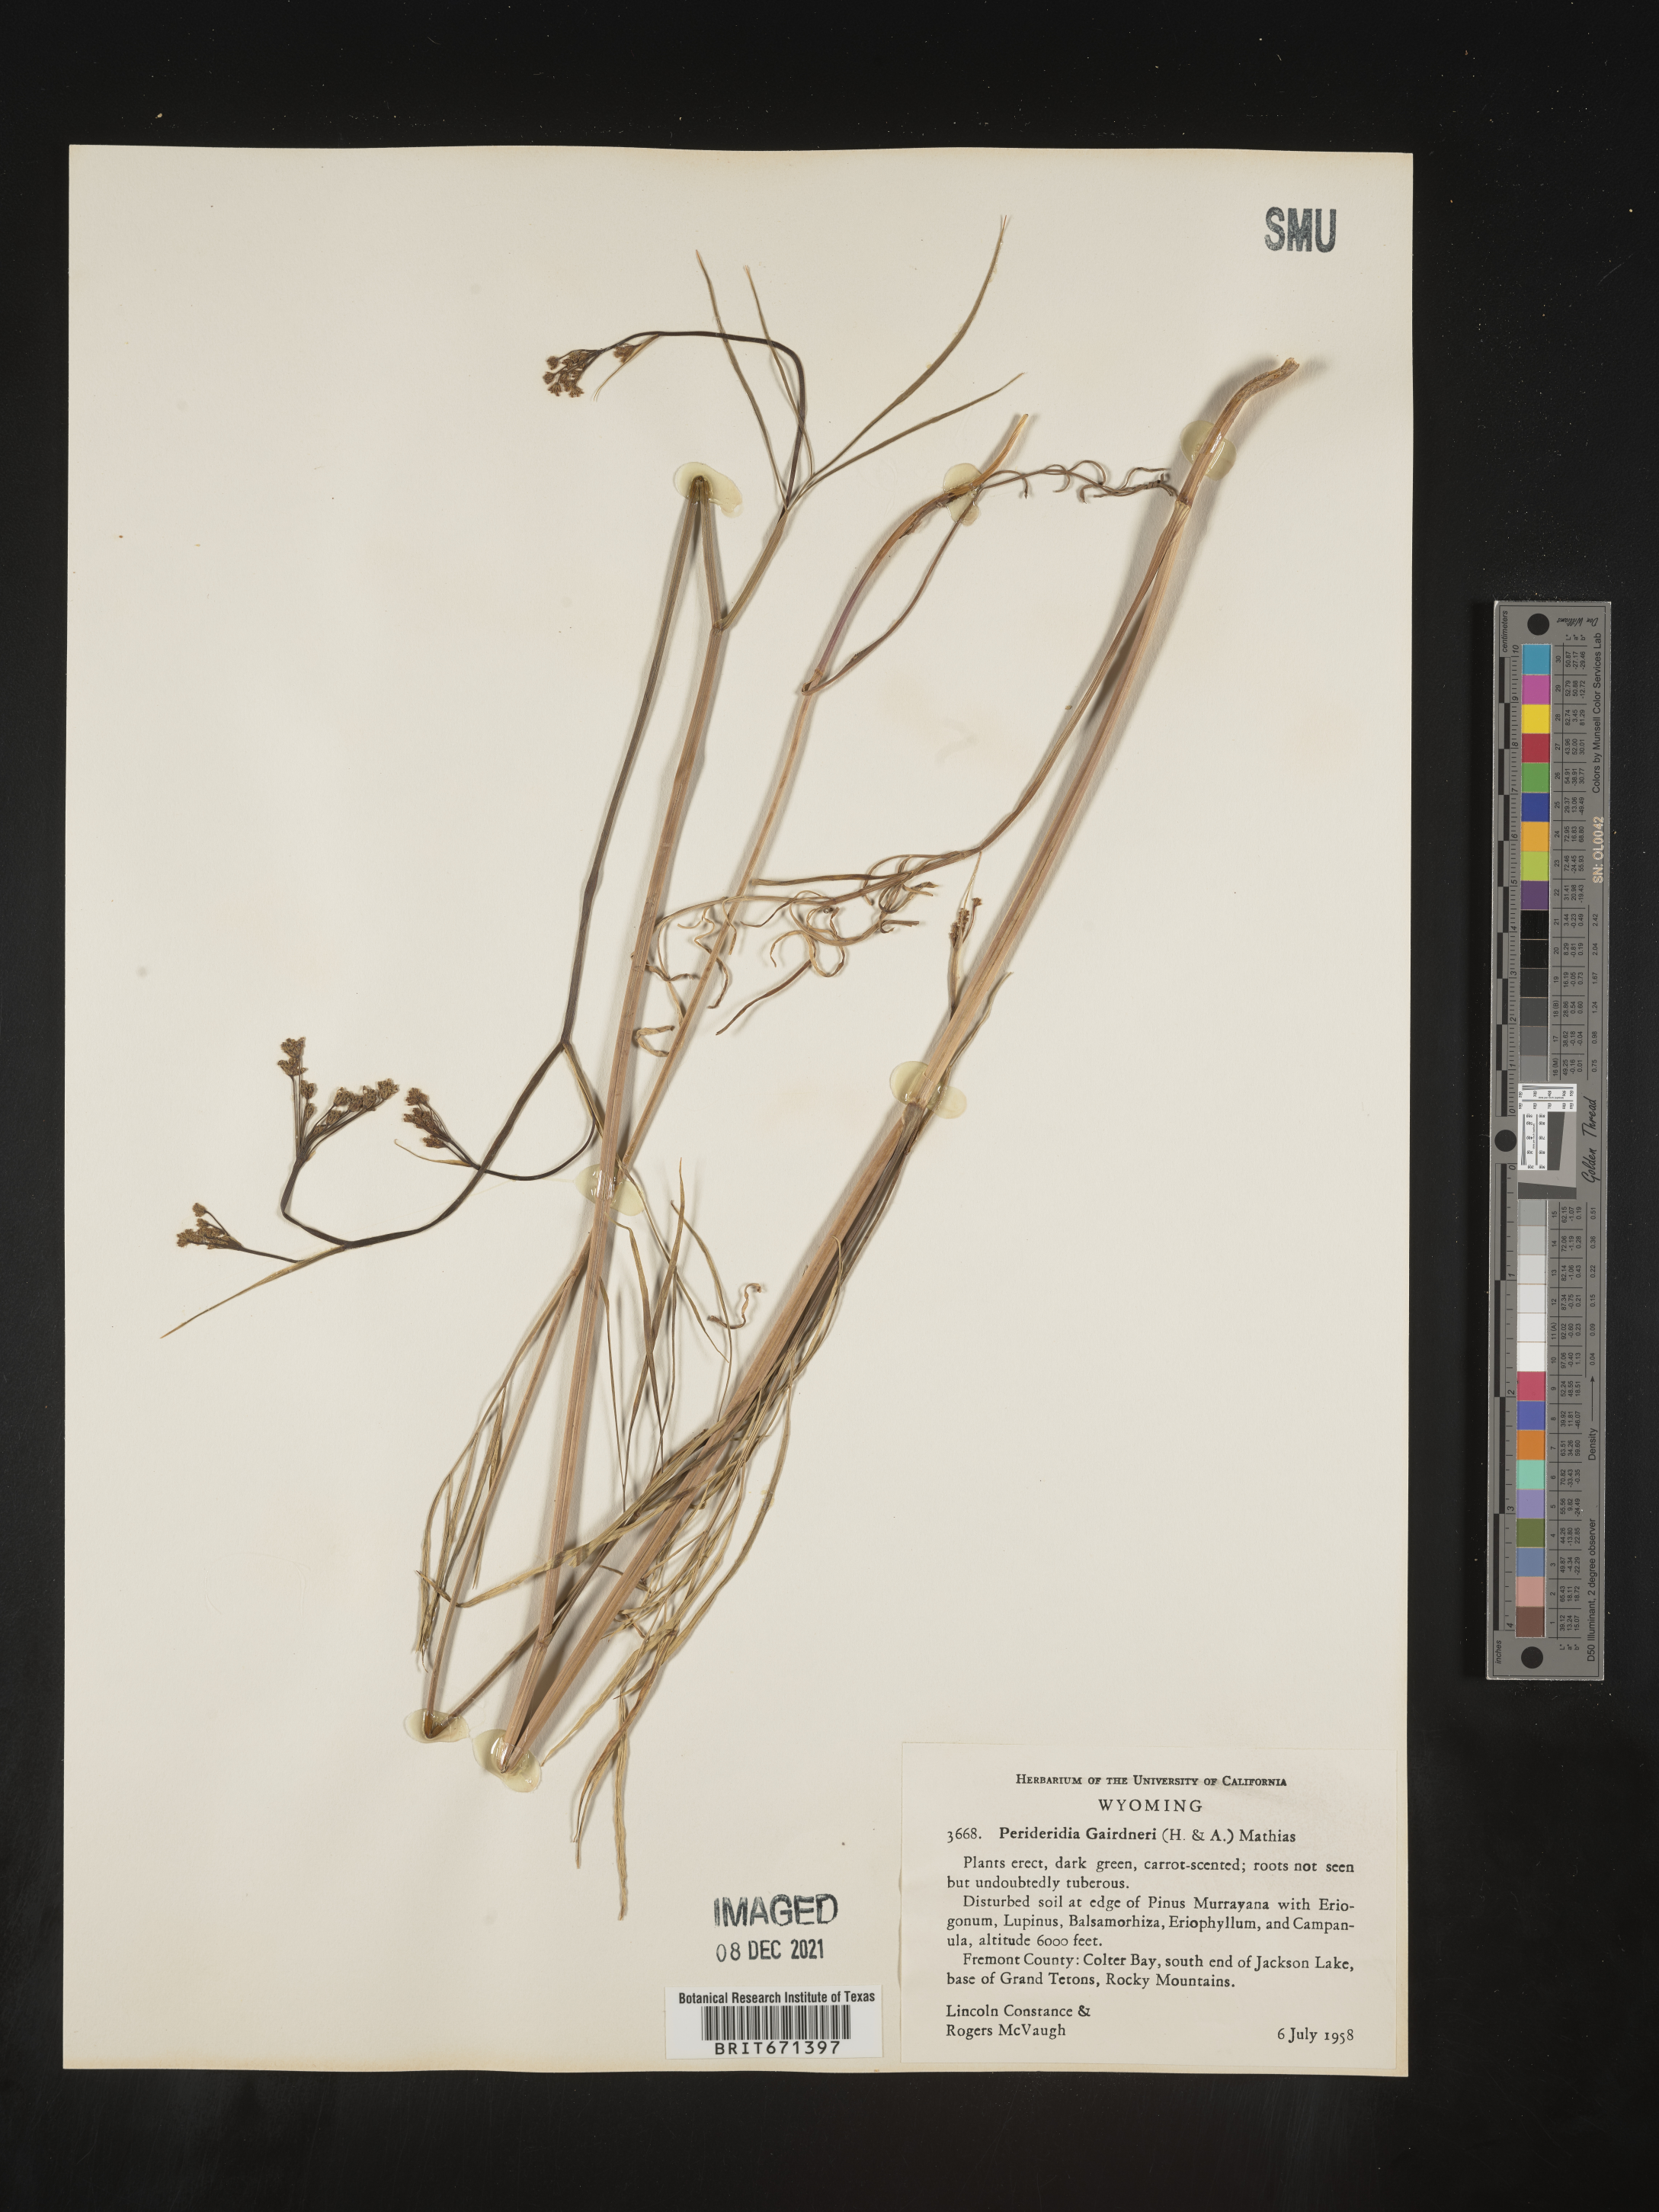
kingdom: Plantae
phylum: Tracheophyta
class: Magnoliopsida
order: Apiales
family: Apiaceae
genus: Perideridia
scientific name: Perideridia gairdneri
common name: False caraway
